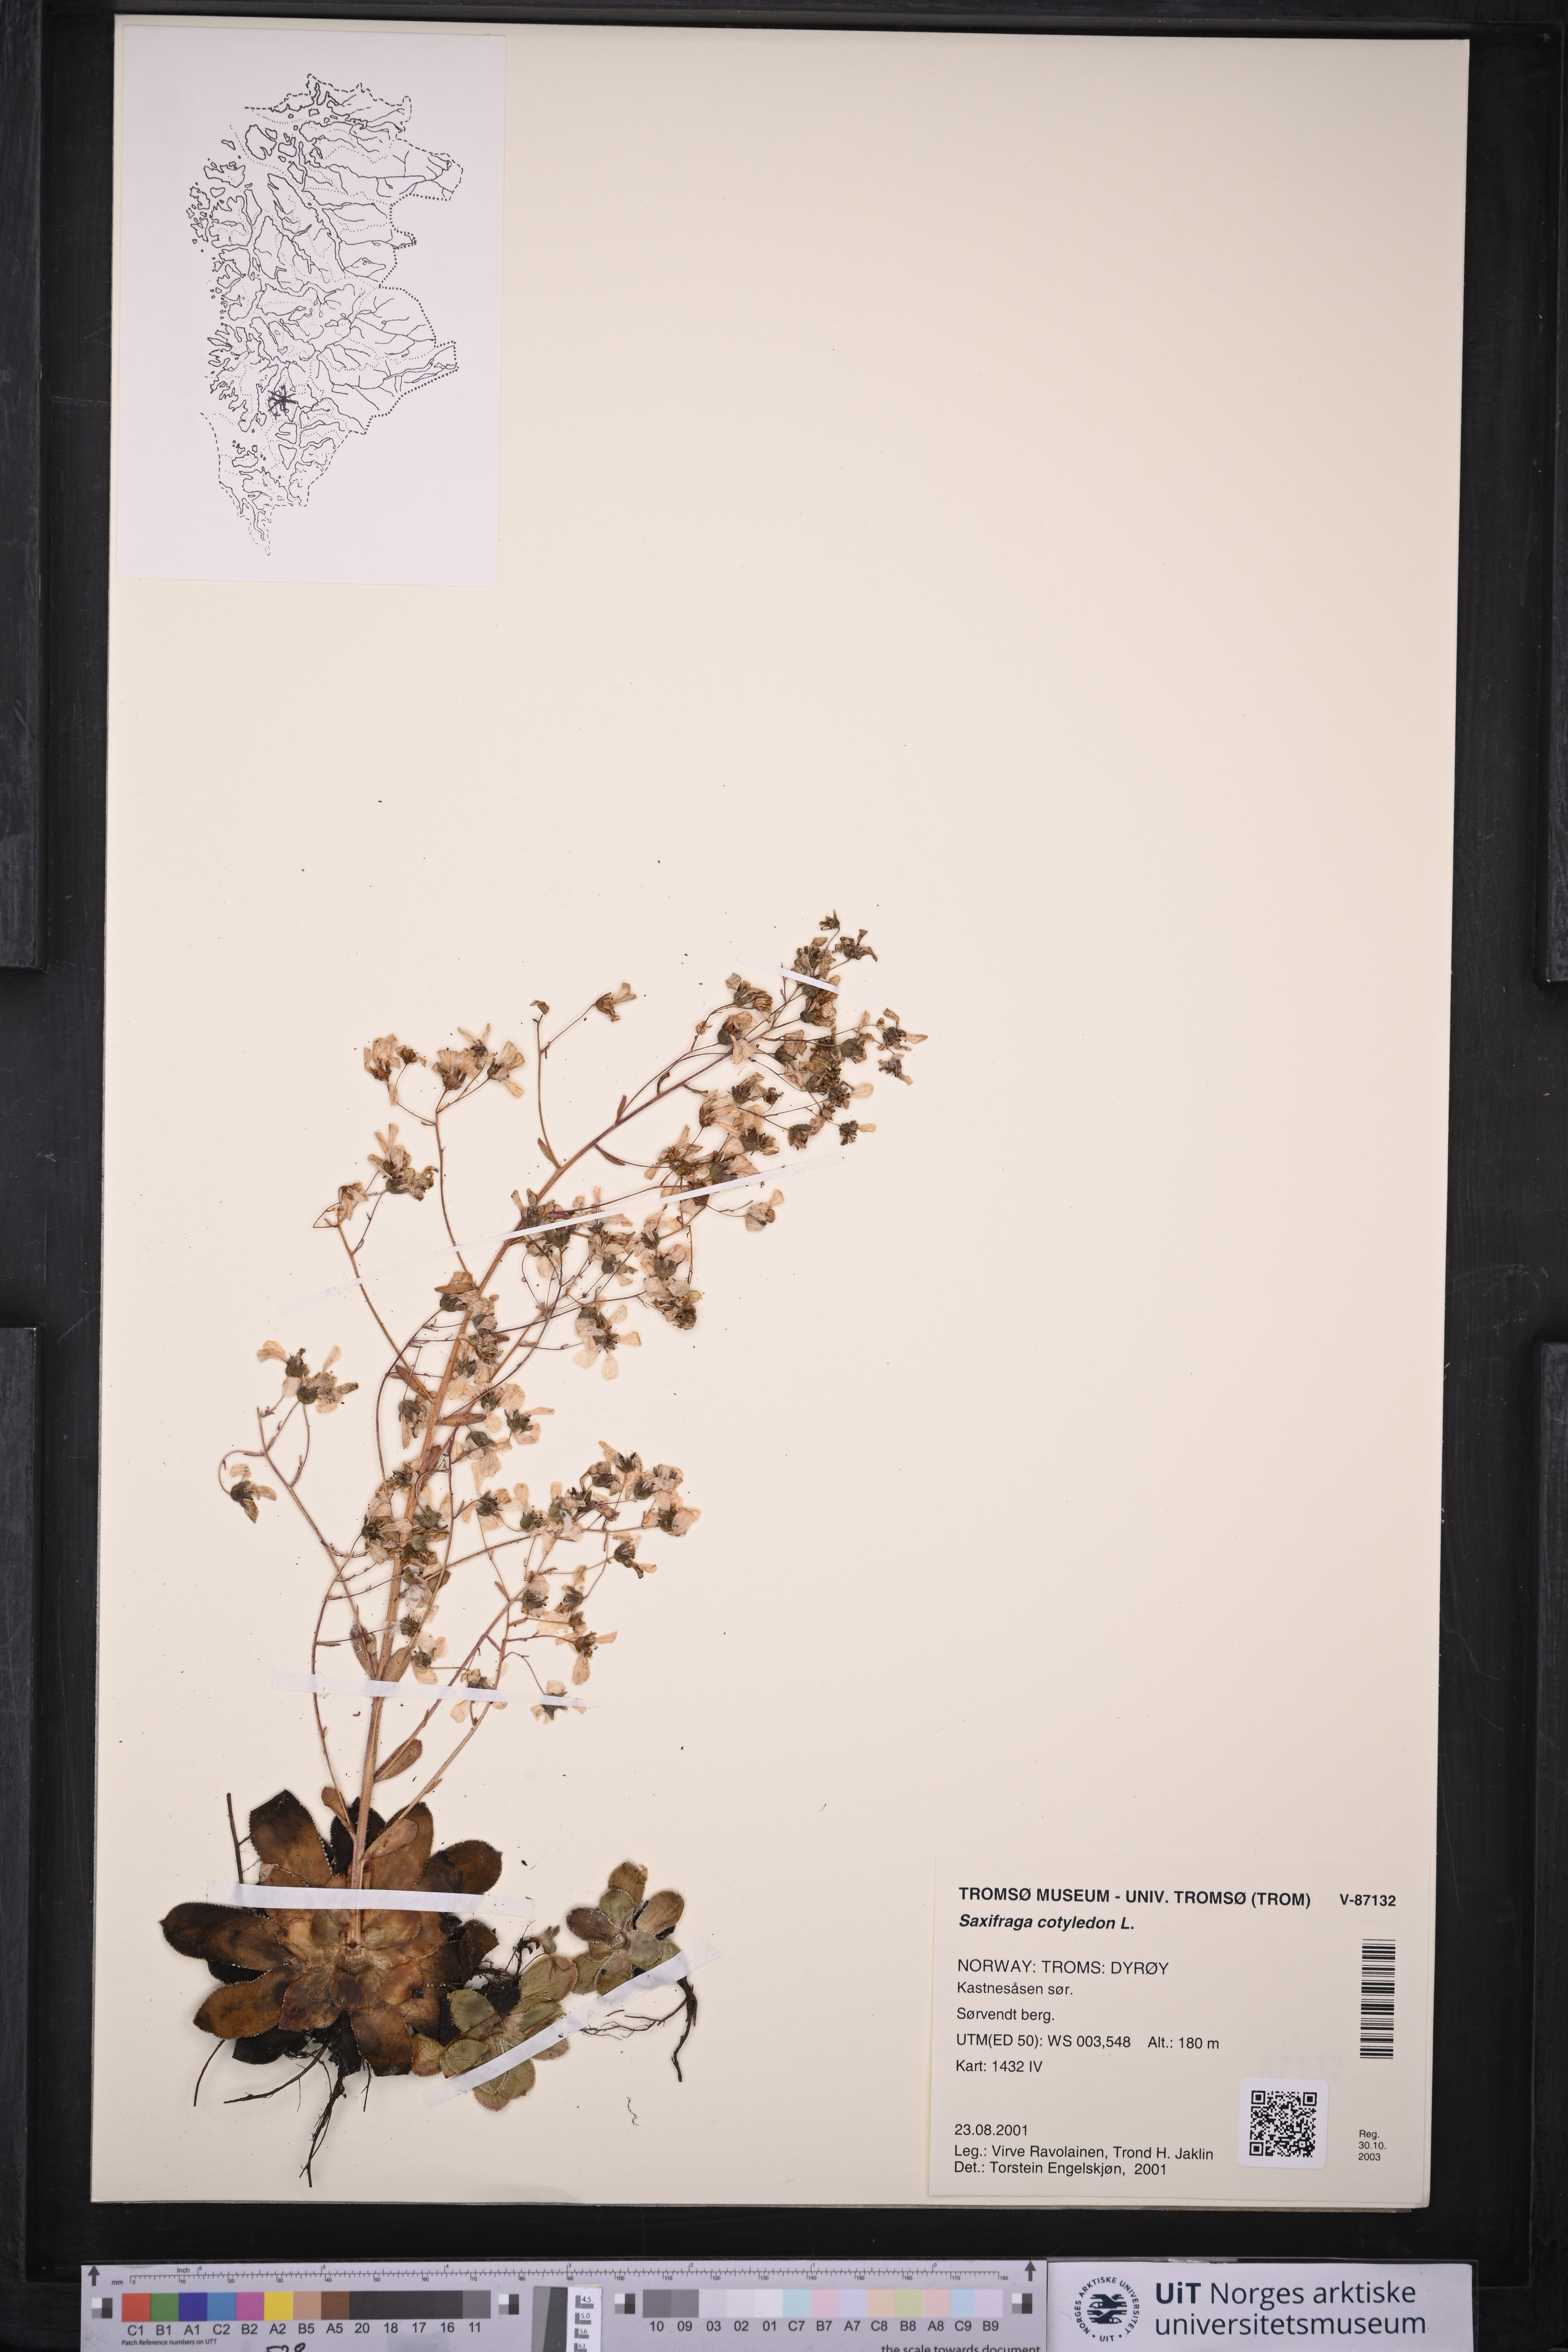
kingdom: Plantae
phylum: Tracheophyta
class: Magnoliopsida
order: Saxifragales
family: Saxifragaceae
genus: Saxifraga
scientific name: Saxifraga cotyledon
